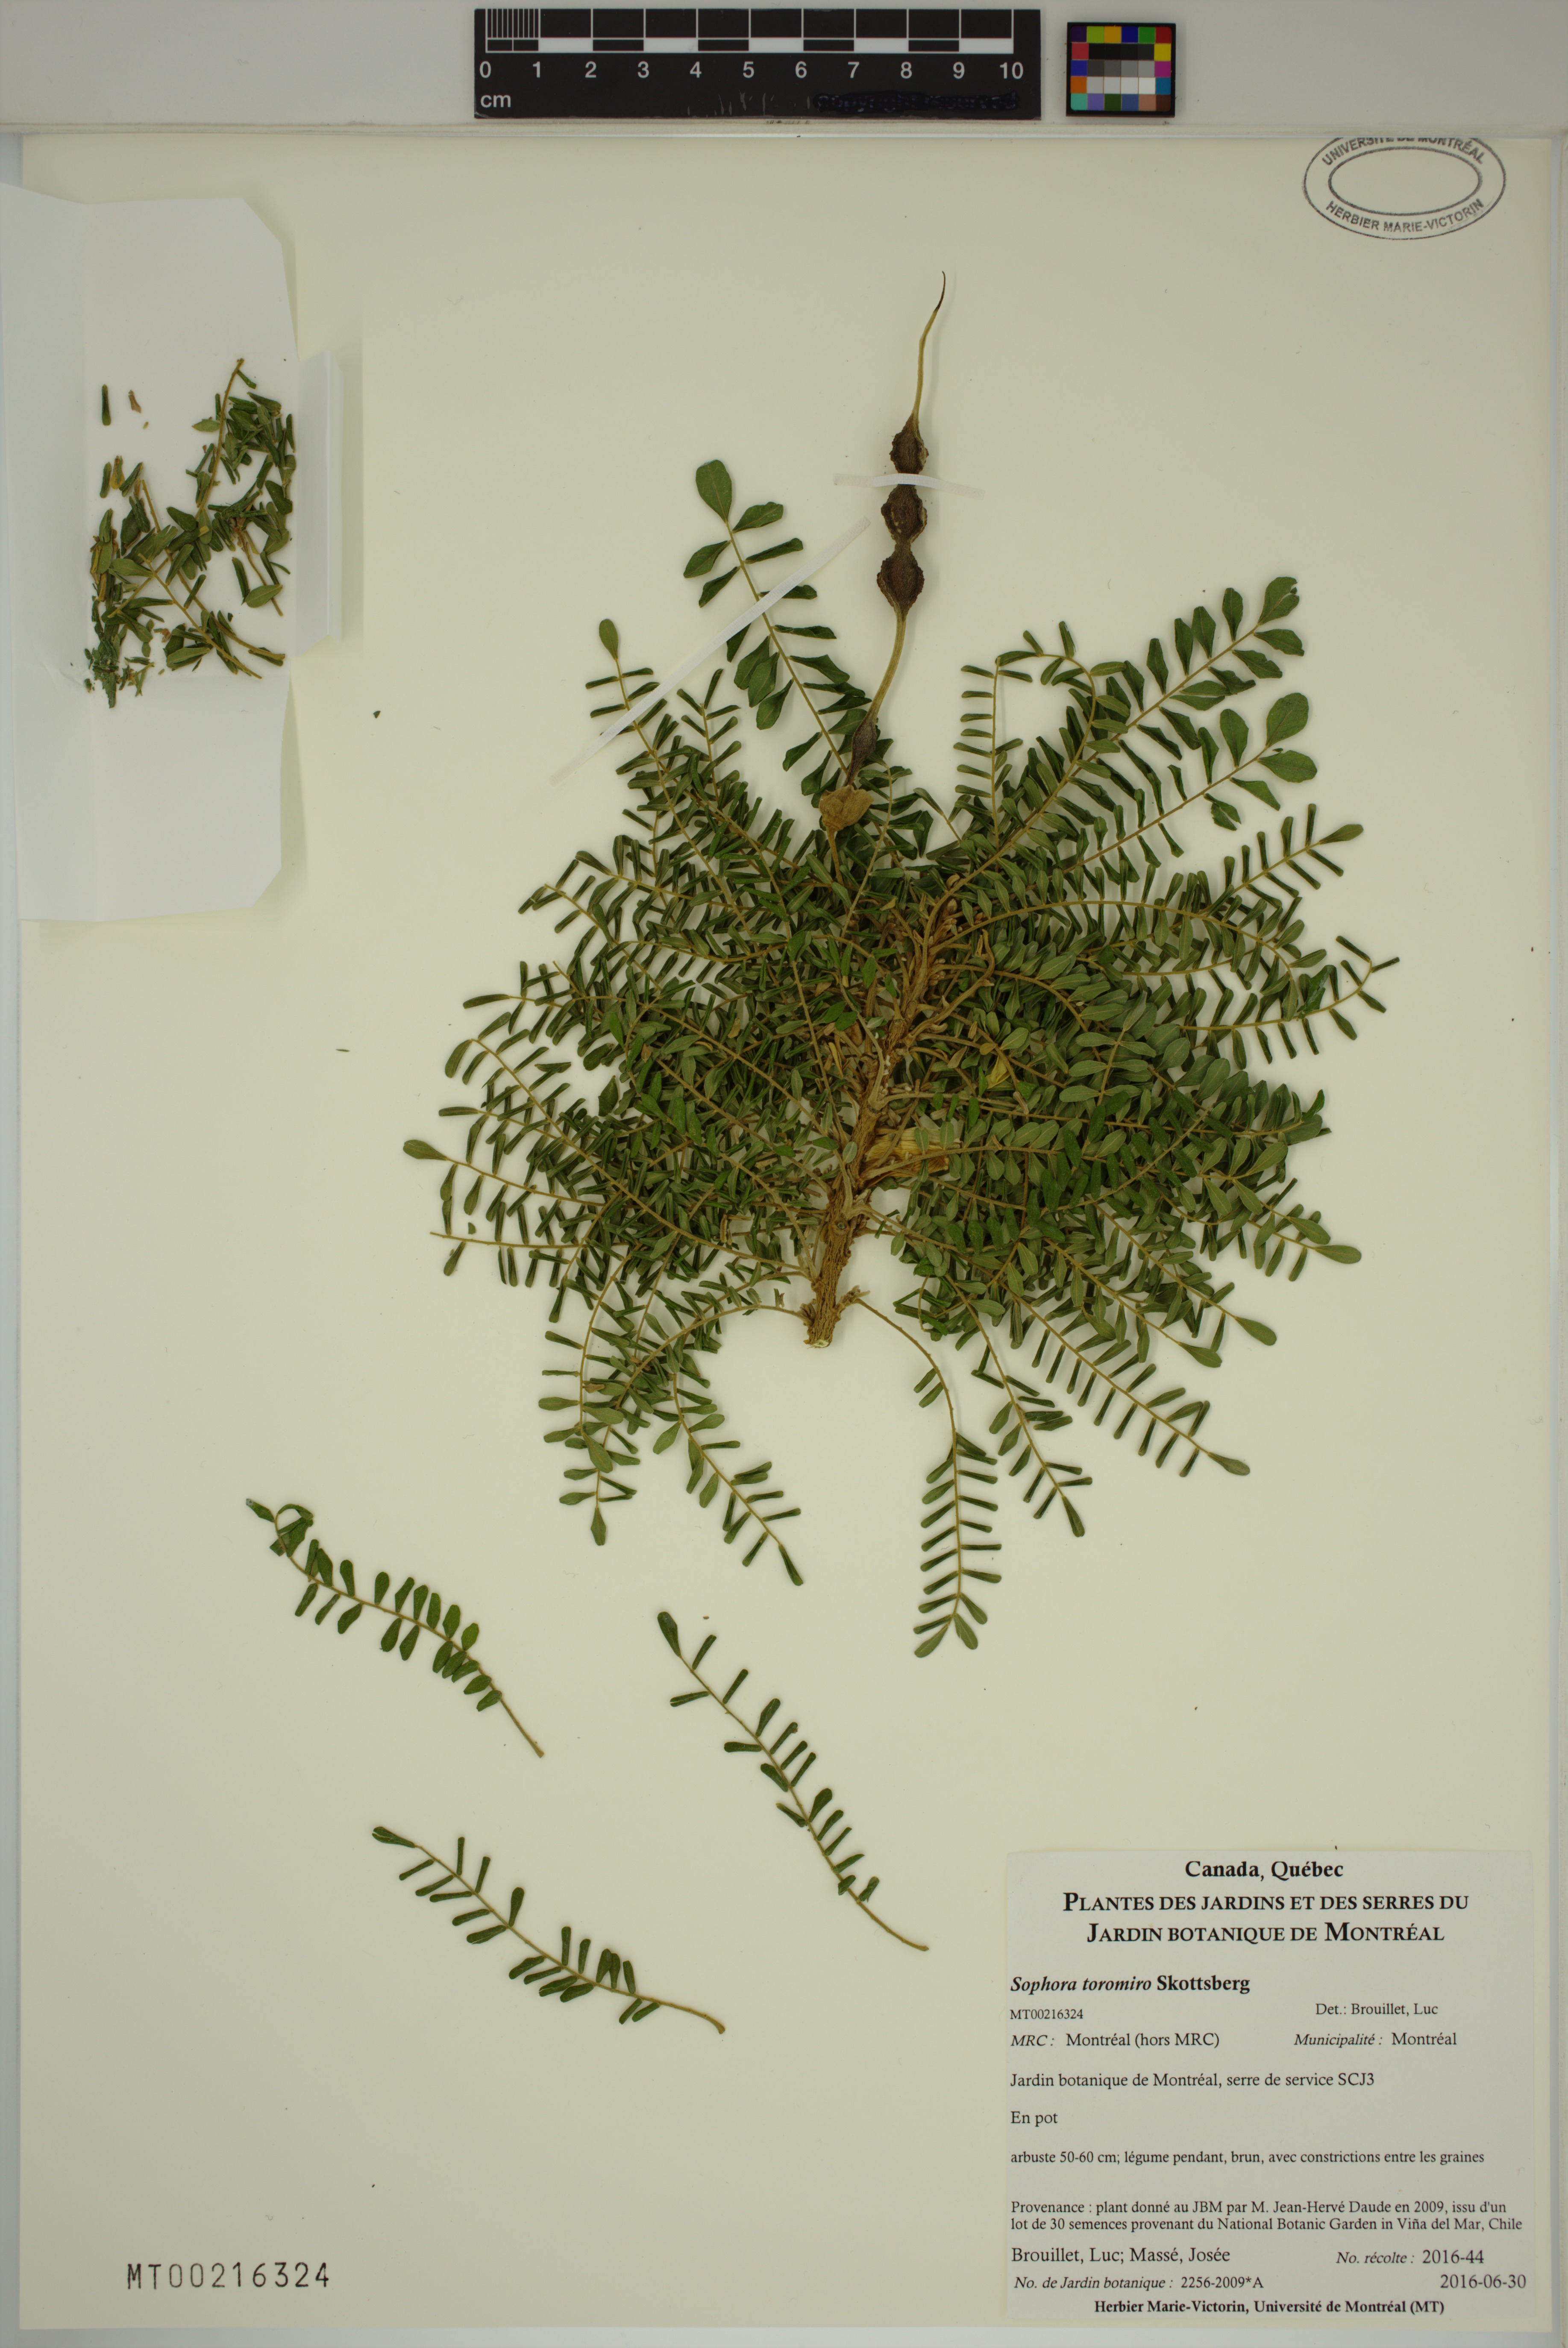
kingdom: Plantae
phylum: Tracheophyta
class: Magnoliopsida
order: Fabales
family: Fabaceae
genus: Sophora
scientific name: Sophora toromiro
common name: Toromiro
